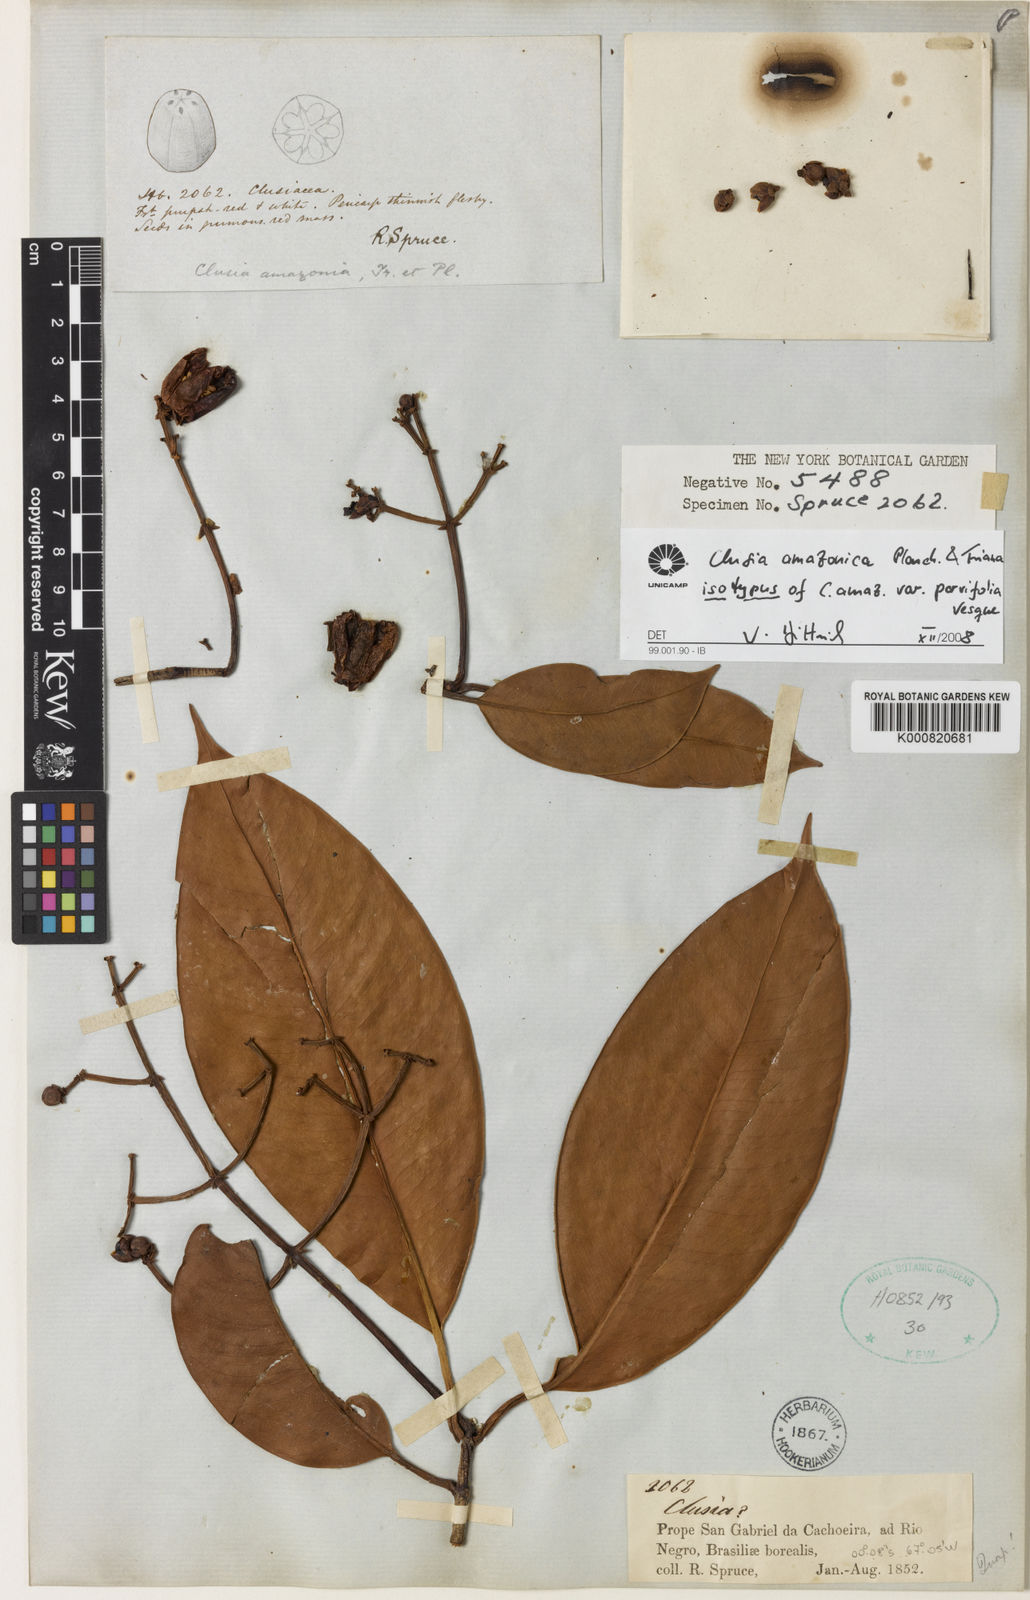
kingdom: Plantae
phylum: Tracheophyta
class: Magnoliopsida
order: Malpighiales
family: Clusiaceae
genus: Clusia
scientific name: Clusia amazonica
